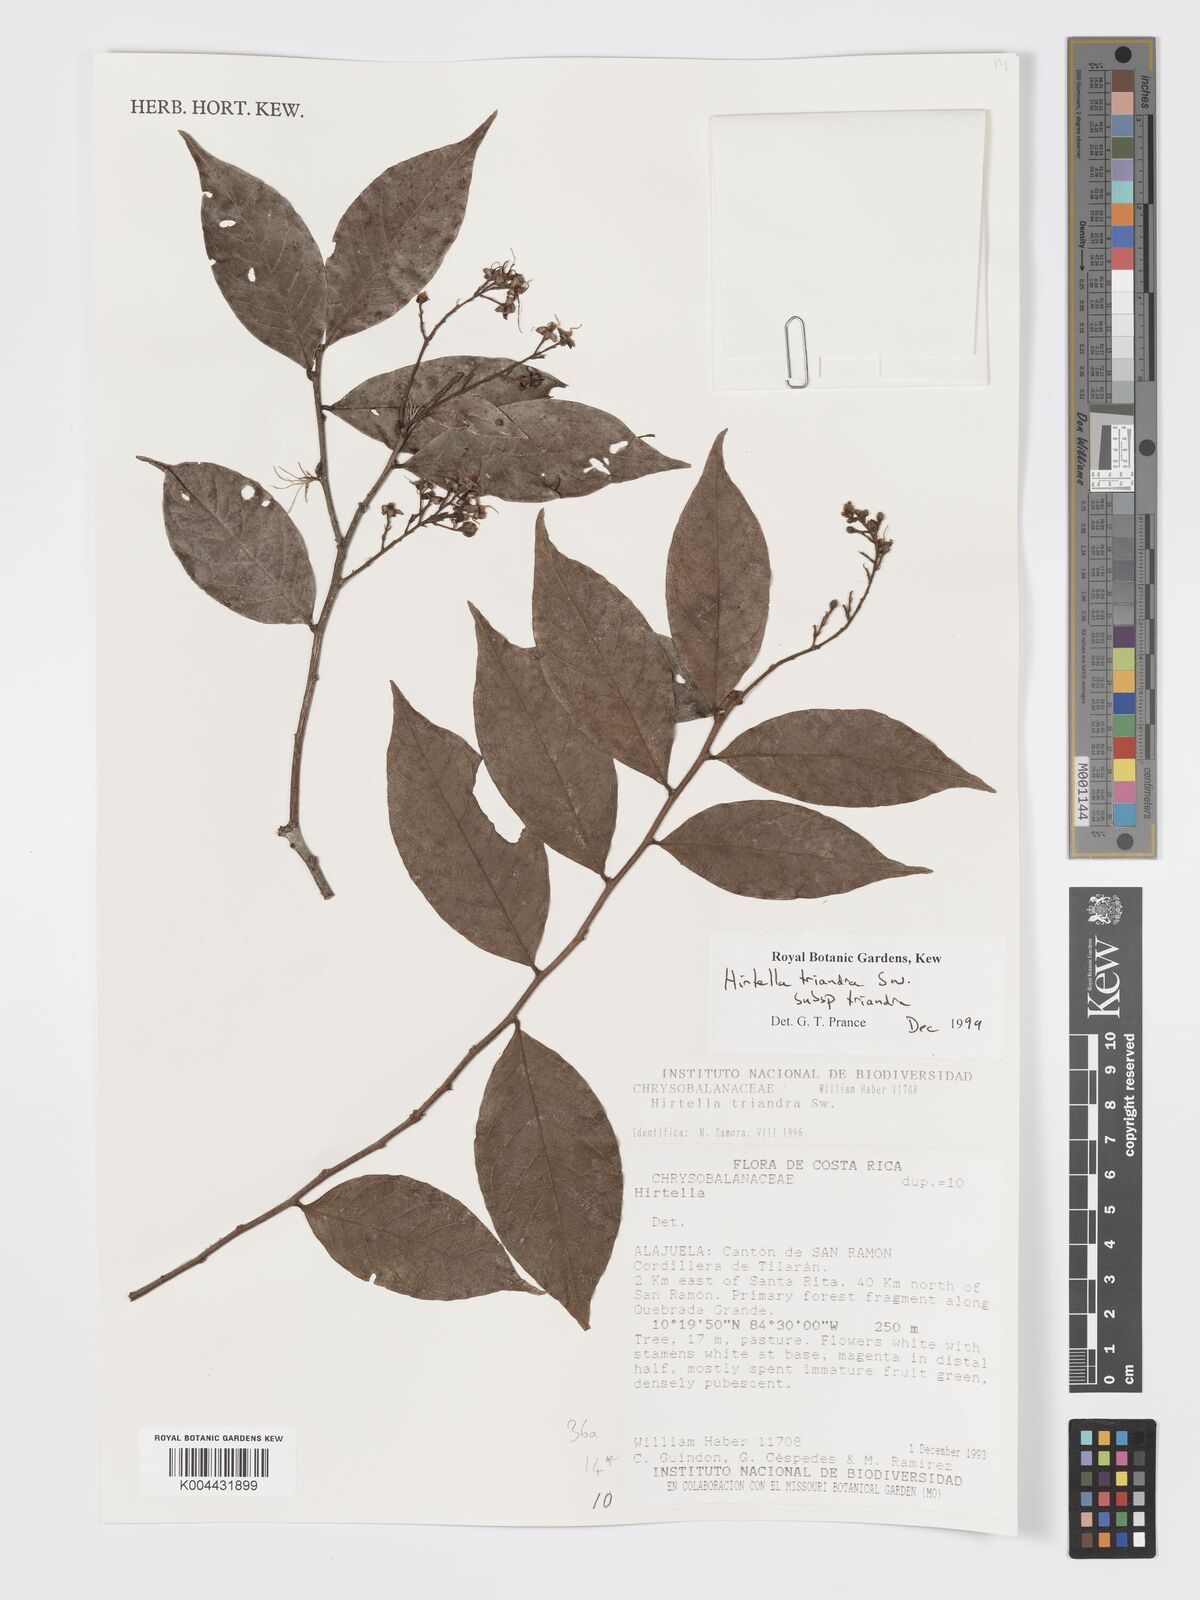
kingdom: Plantae
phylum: Tracheophyta
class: Magnoliopsida
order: Malpighiales
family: Chrysobalanaceae
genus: Hirtella
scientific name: Hirtella triandra
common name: Hairy plum
